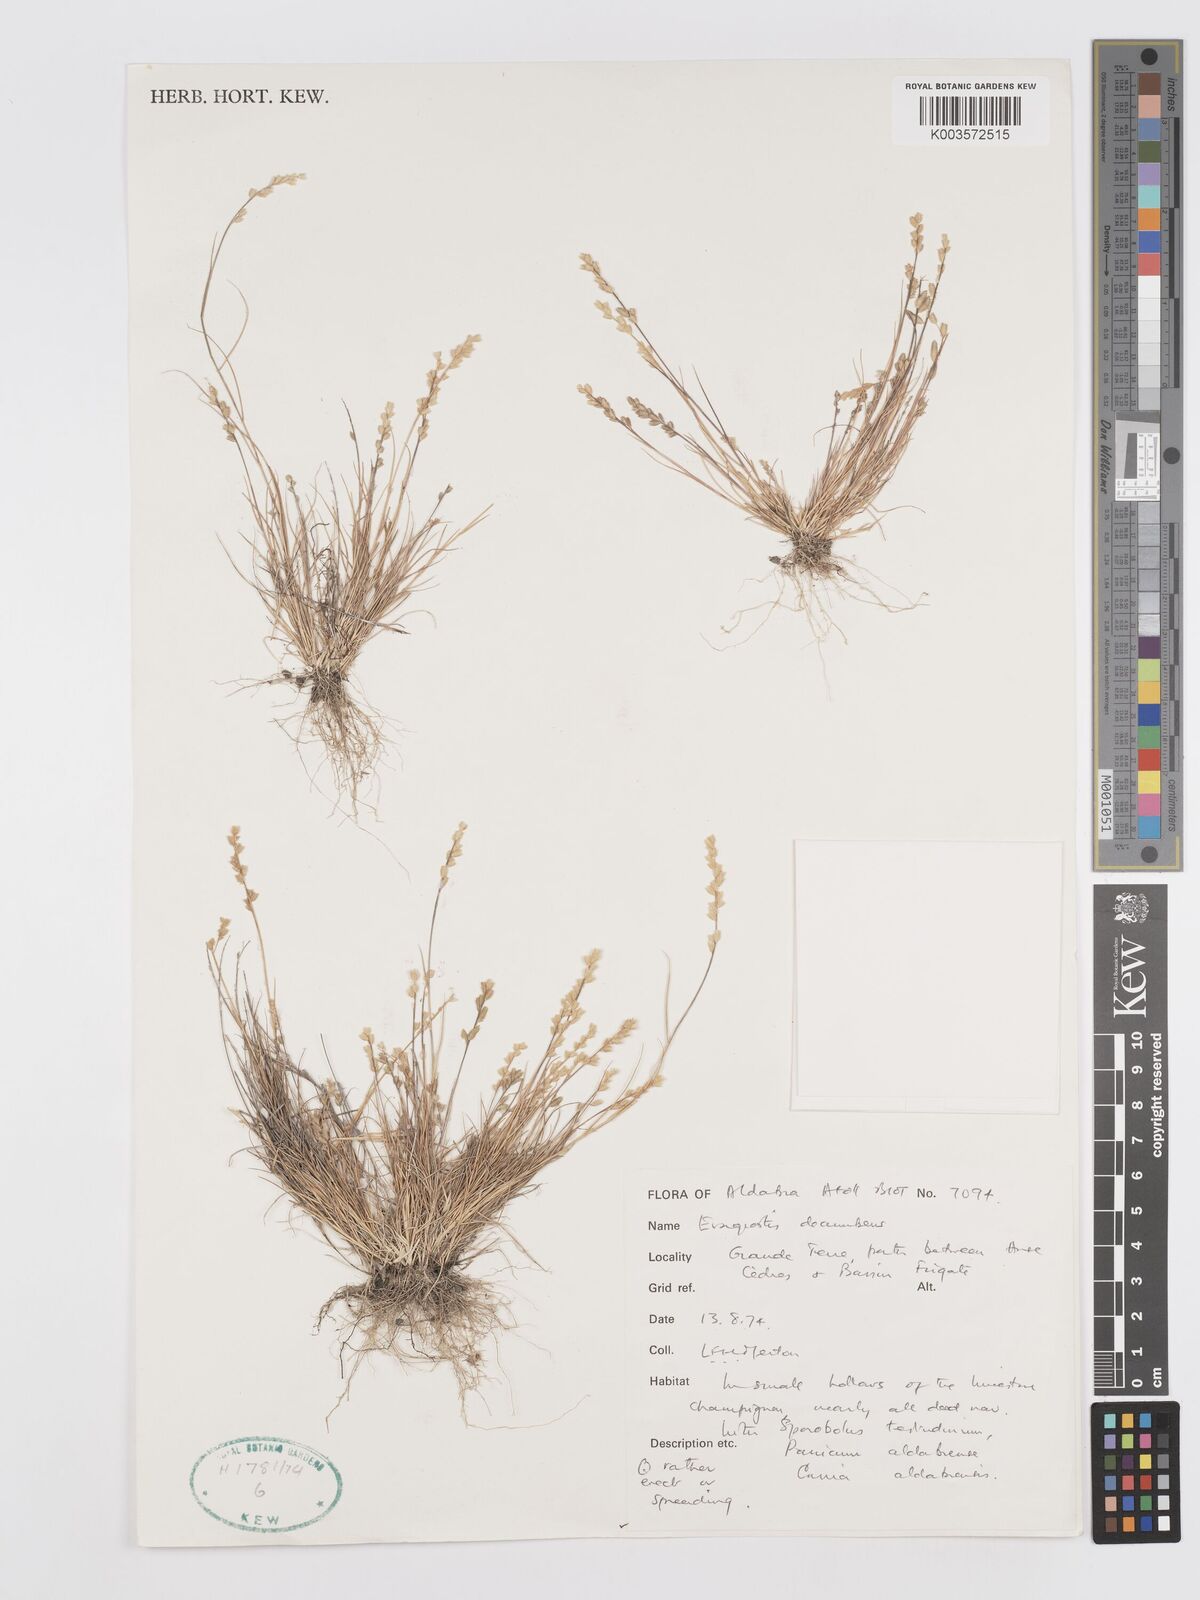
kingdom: Plantae
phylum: Tracheophyta
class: Liliopsida
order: Poales
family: Poaceae
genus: Eragrostis
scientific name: Eragrostis decumbens
